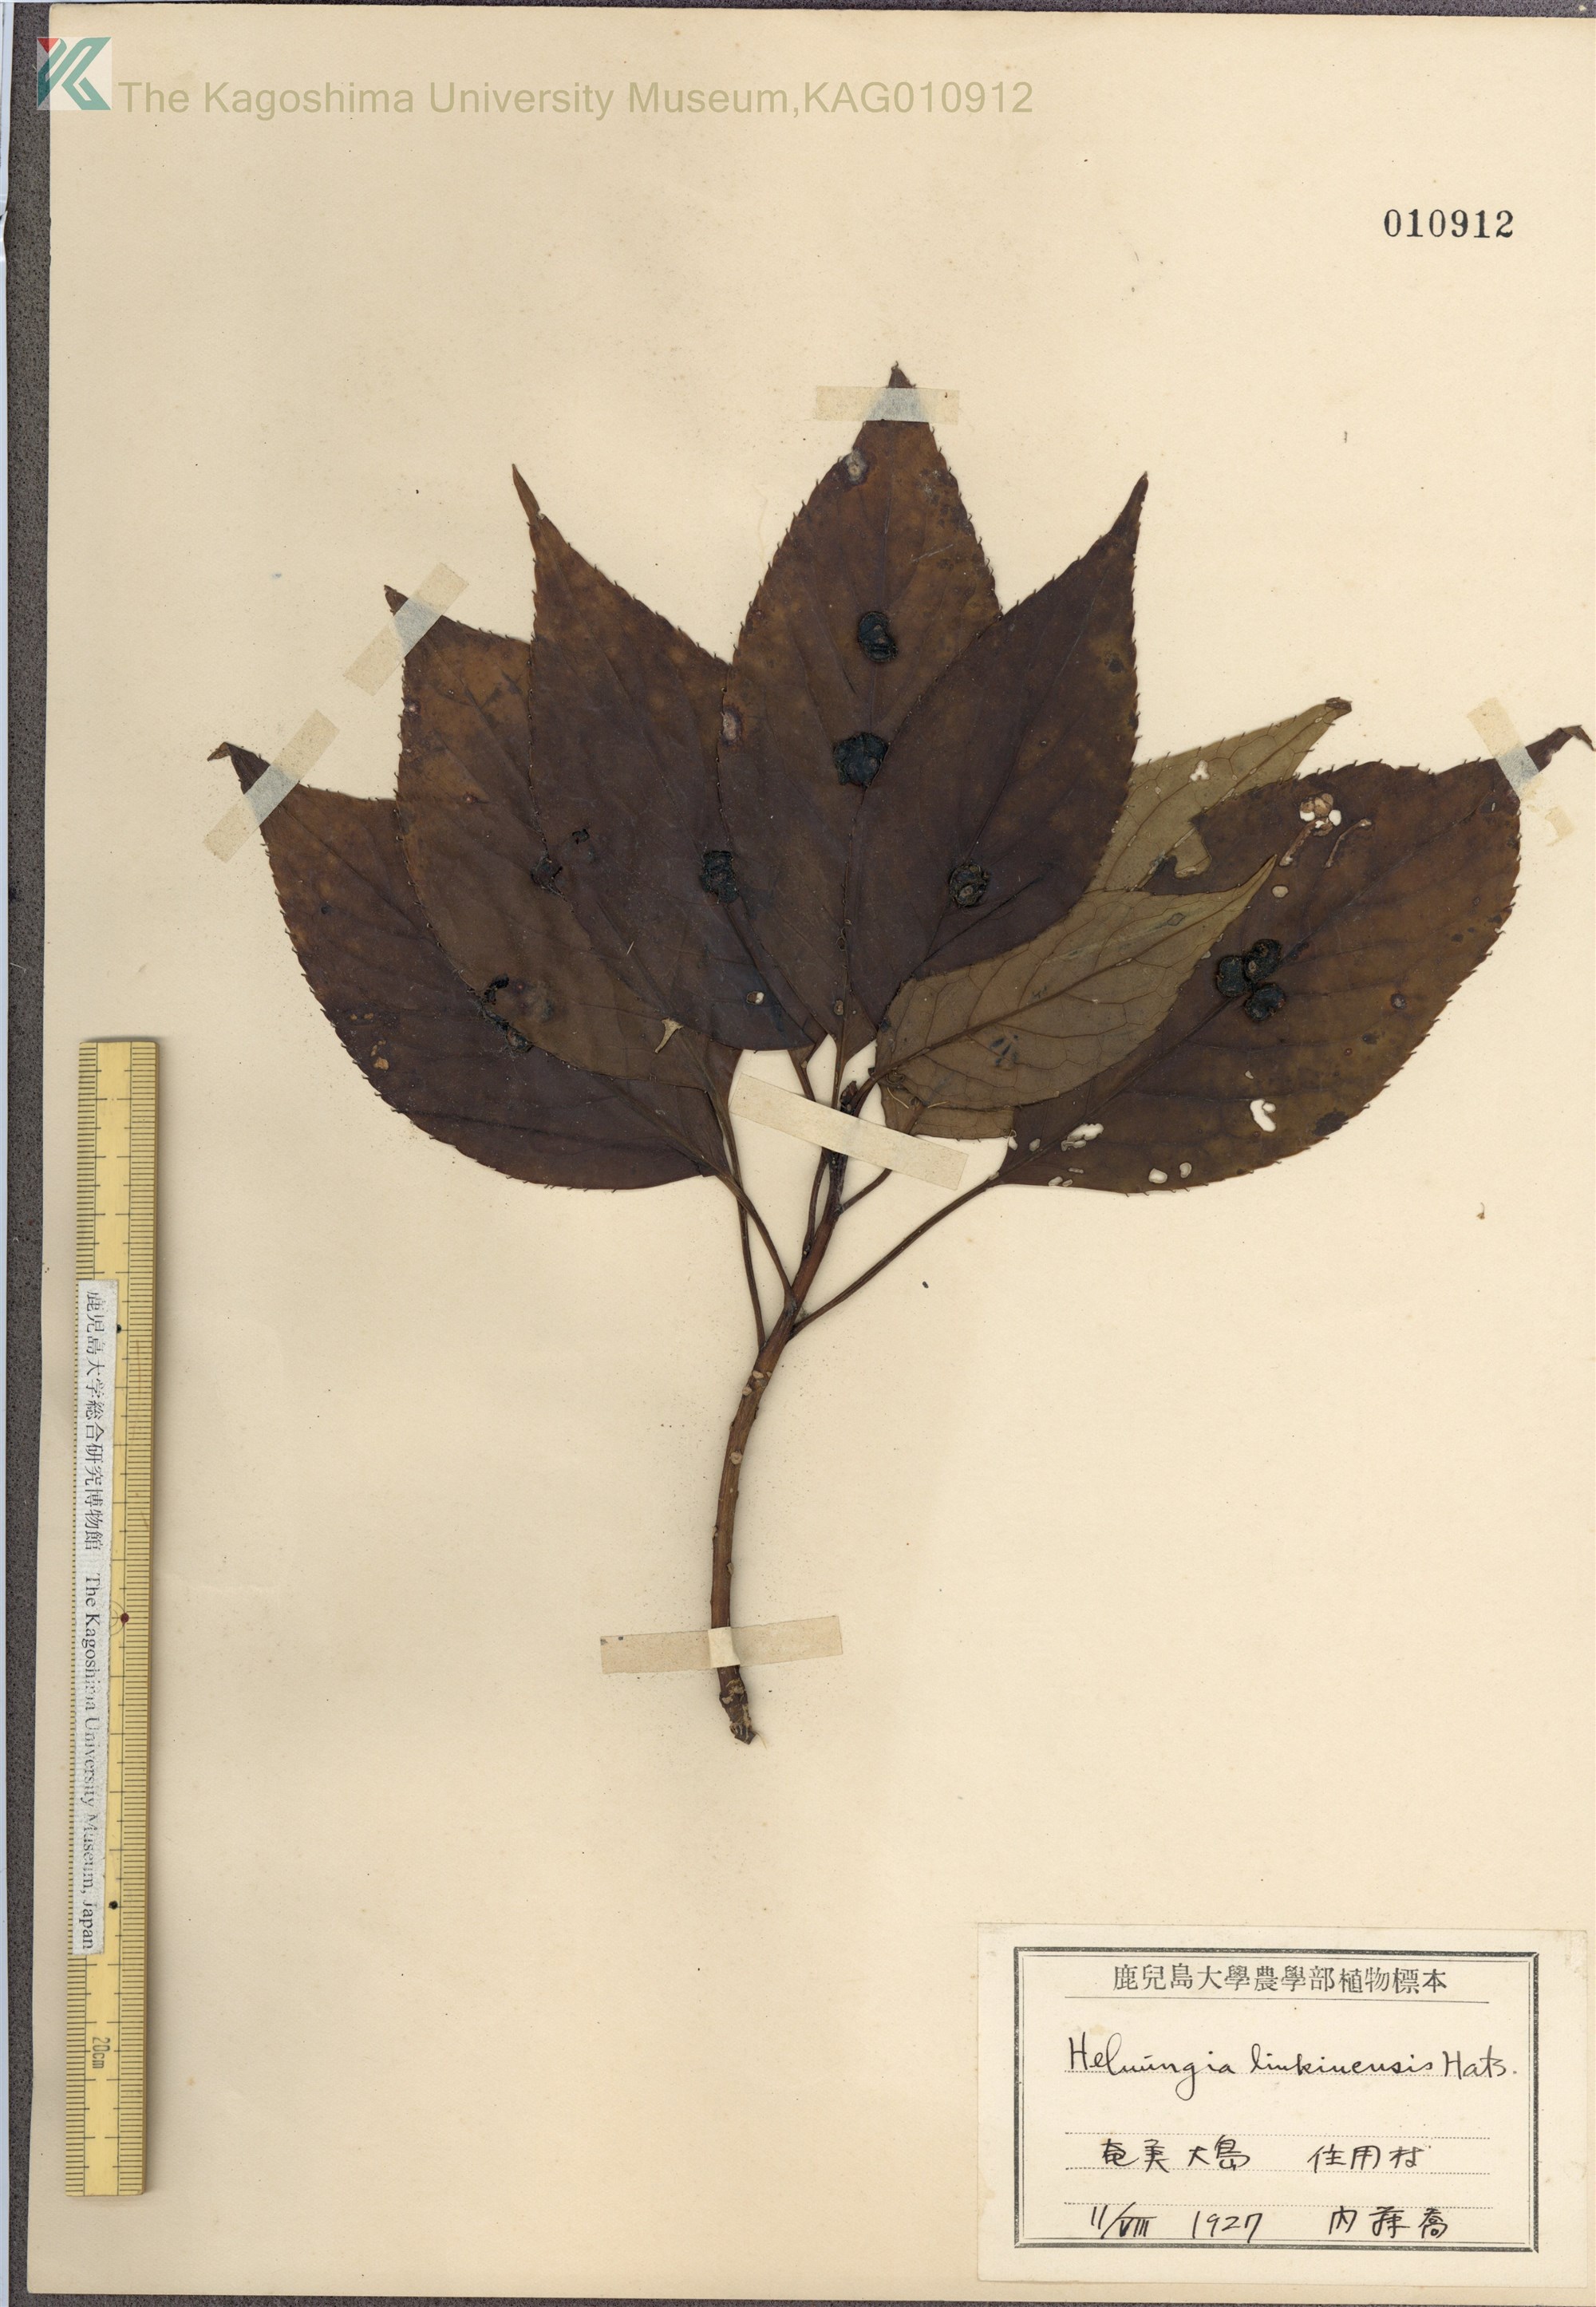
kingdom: Plantae
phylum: Tracheophyta
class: Magnoliopsida
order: Aquifoliales
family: Helwingiaceae
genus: Helwingia
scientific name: Helwingia japonica
